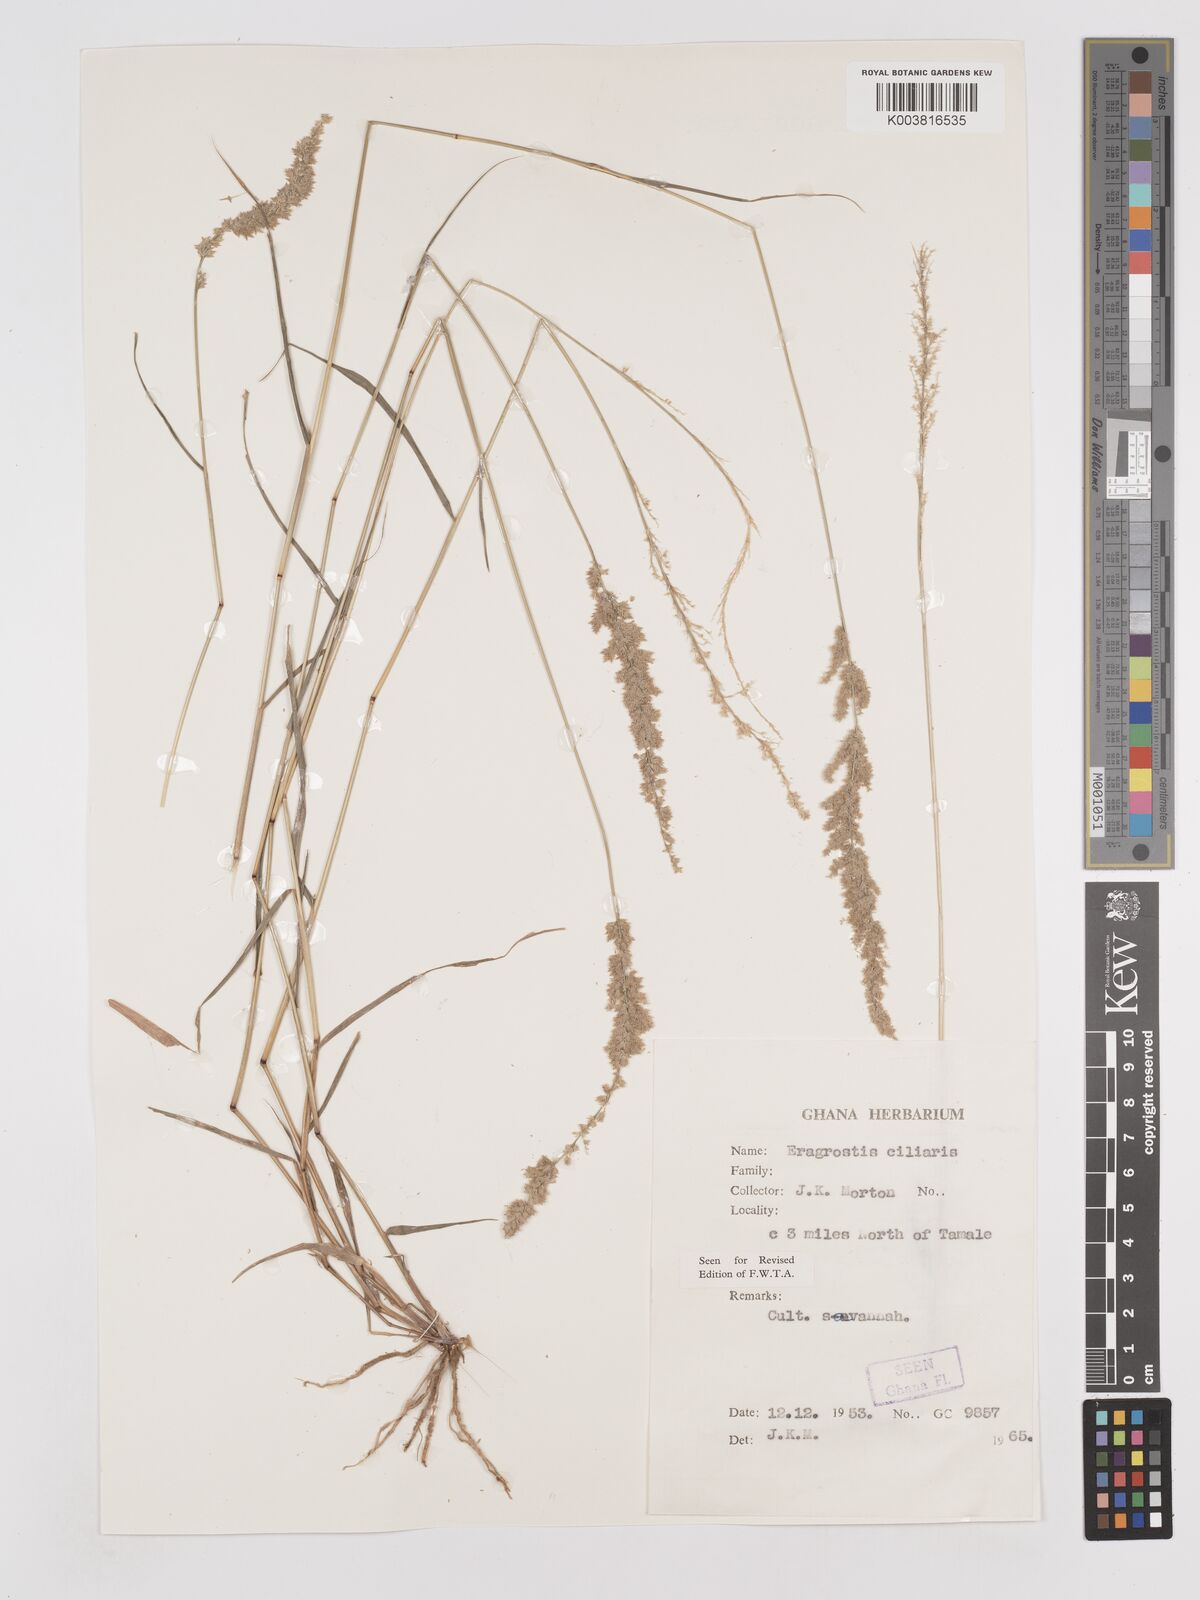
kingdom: Plantae
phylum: Tracheophyta
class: Liliopsida
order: Poales
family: Poaceae
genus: Eragrostis
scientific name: Eragrostis ciliaris
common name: Gophertail lovegrass
